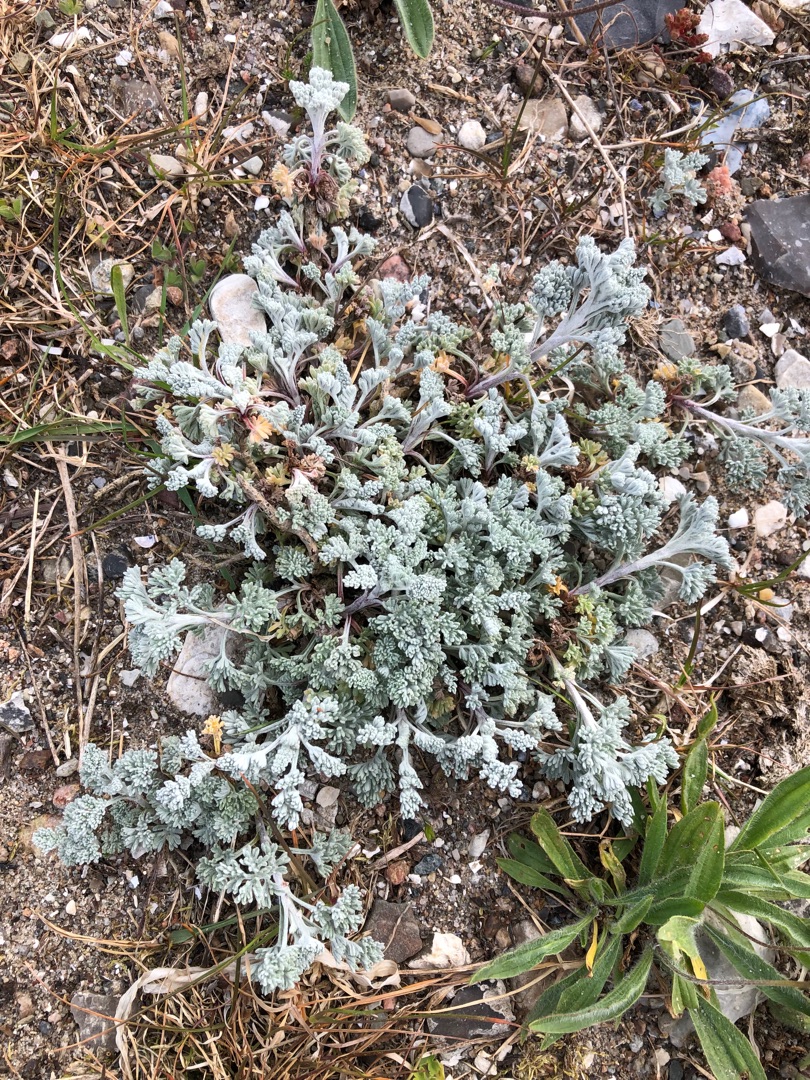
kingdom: Plantae
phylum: Tracheophyta
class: Magnoliopsida
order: Asterales
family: Asteraceae
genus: Artemisia
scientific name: Artemisia maritima
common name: Strandmalurt
